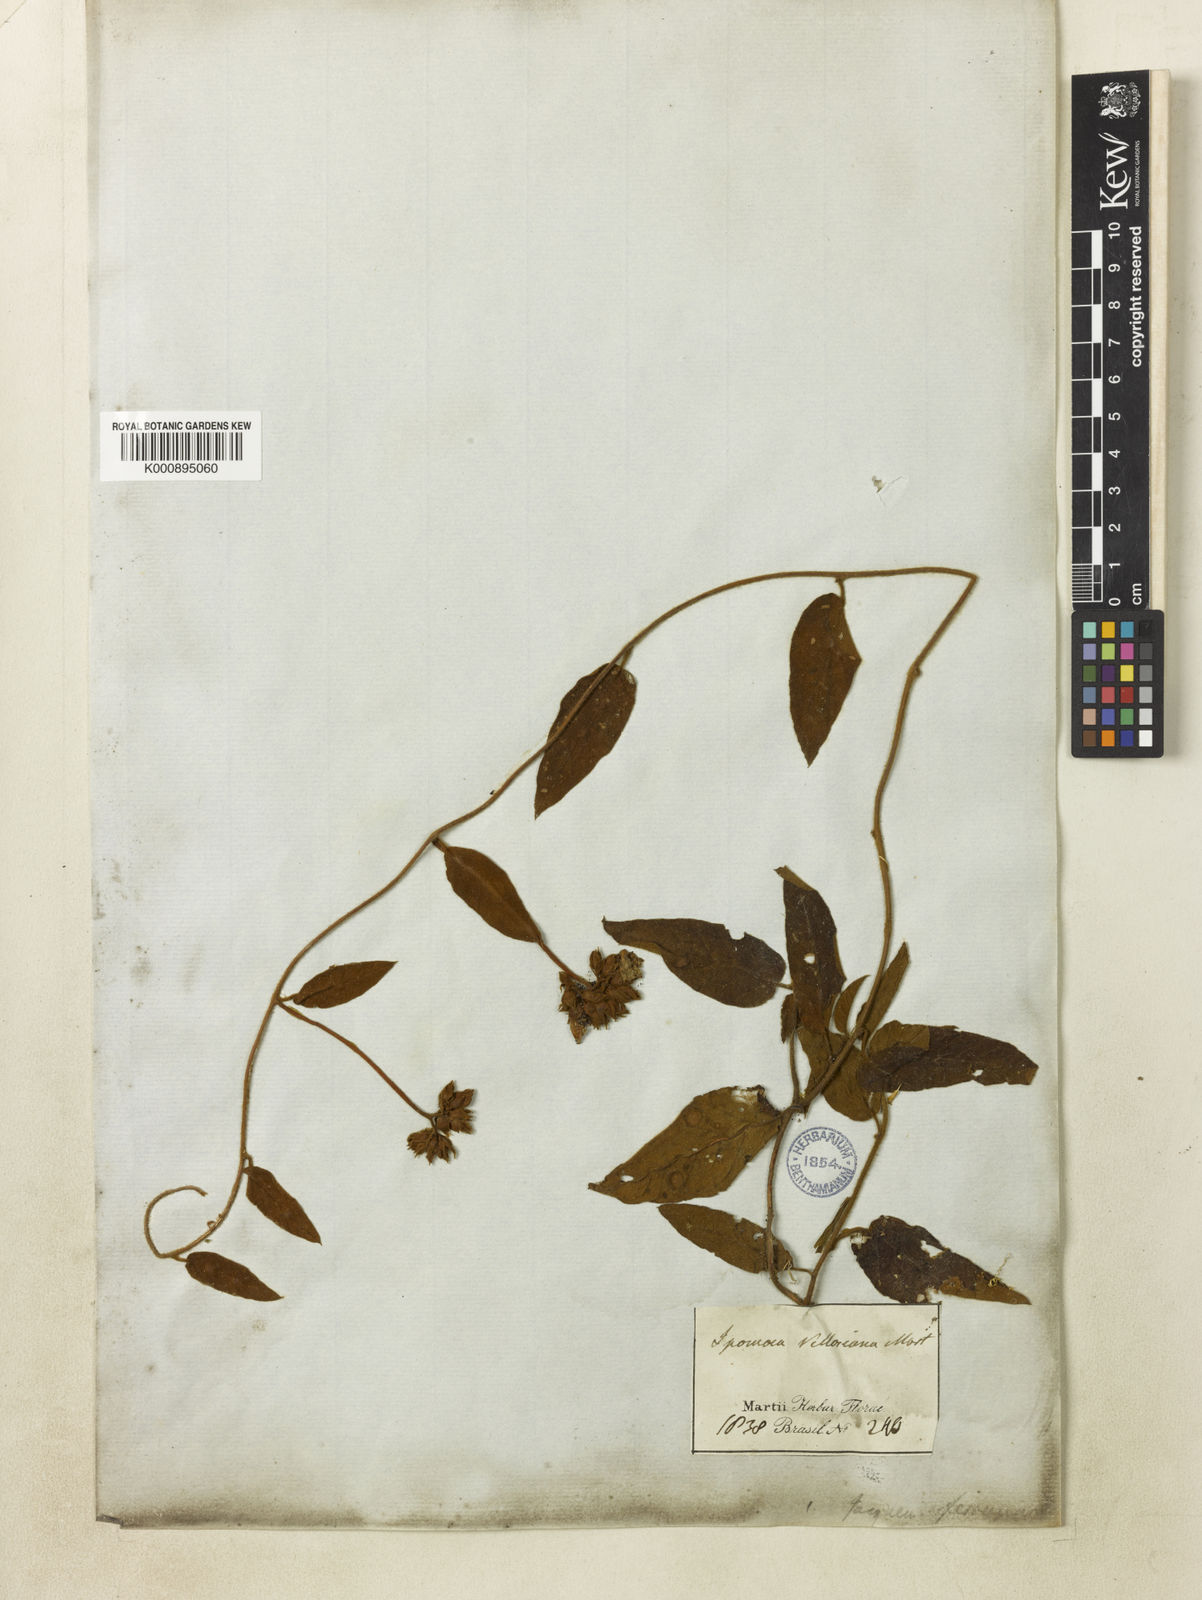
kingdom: Plantae
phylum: Tracheophyta
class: Magnoliopsida
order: Solanales
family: Convolvulaceae
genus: Jacquemontia
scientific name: Jacquemontia velloziana
